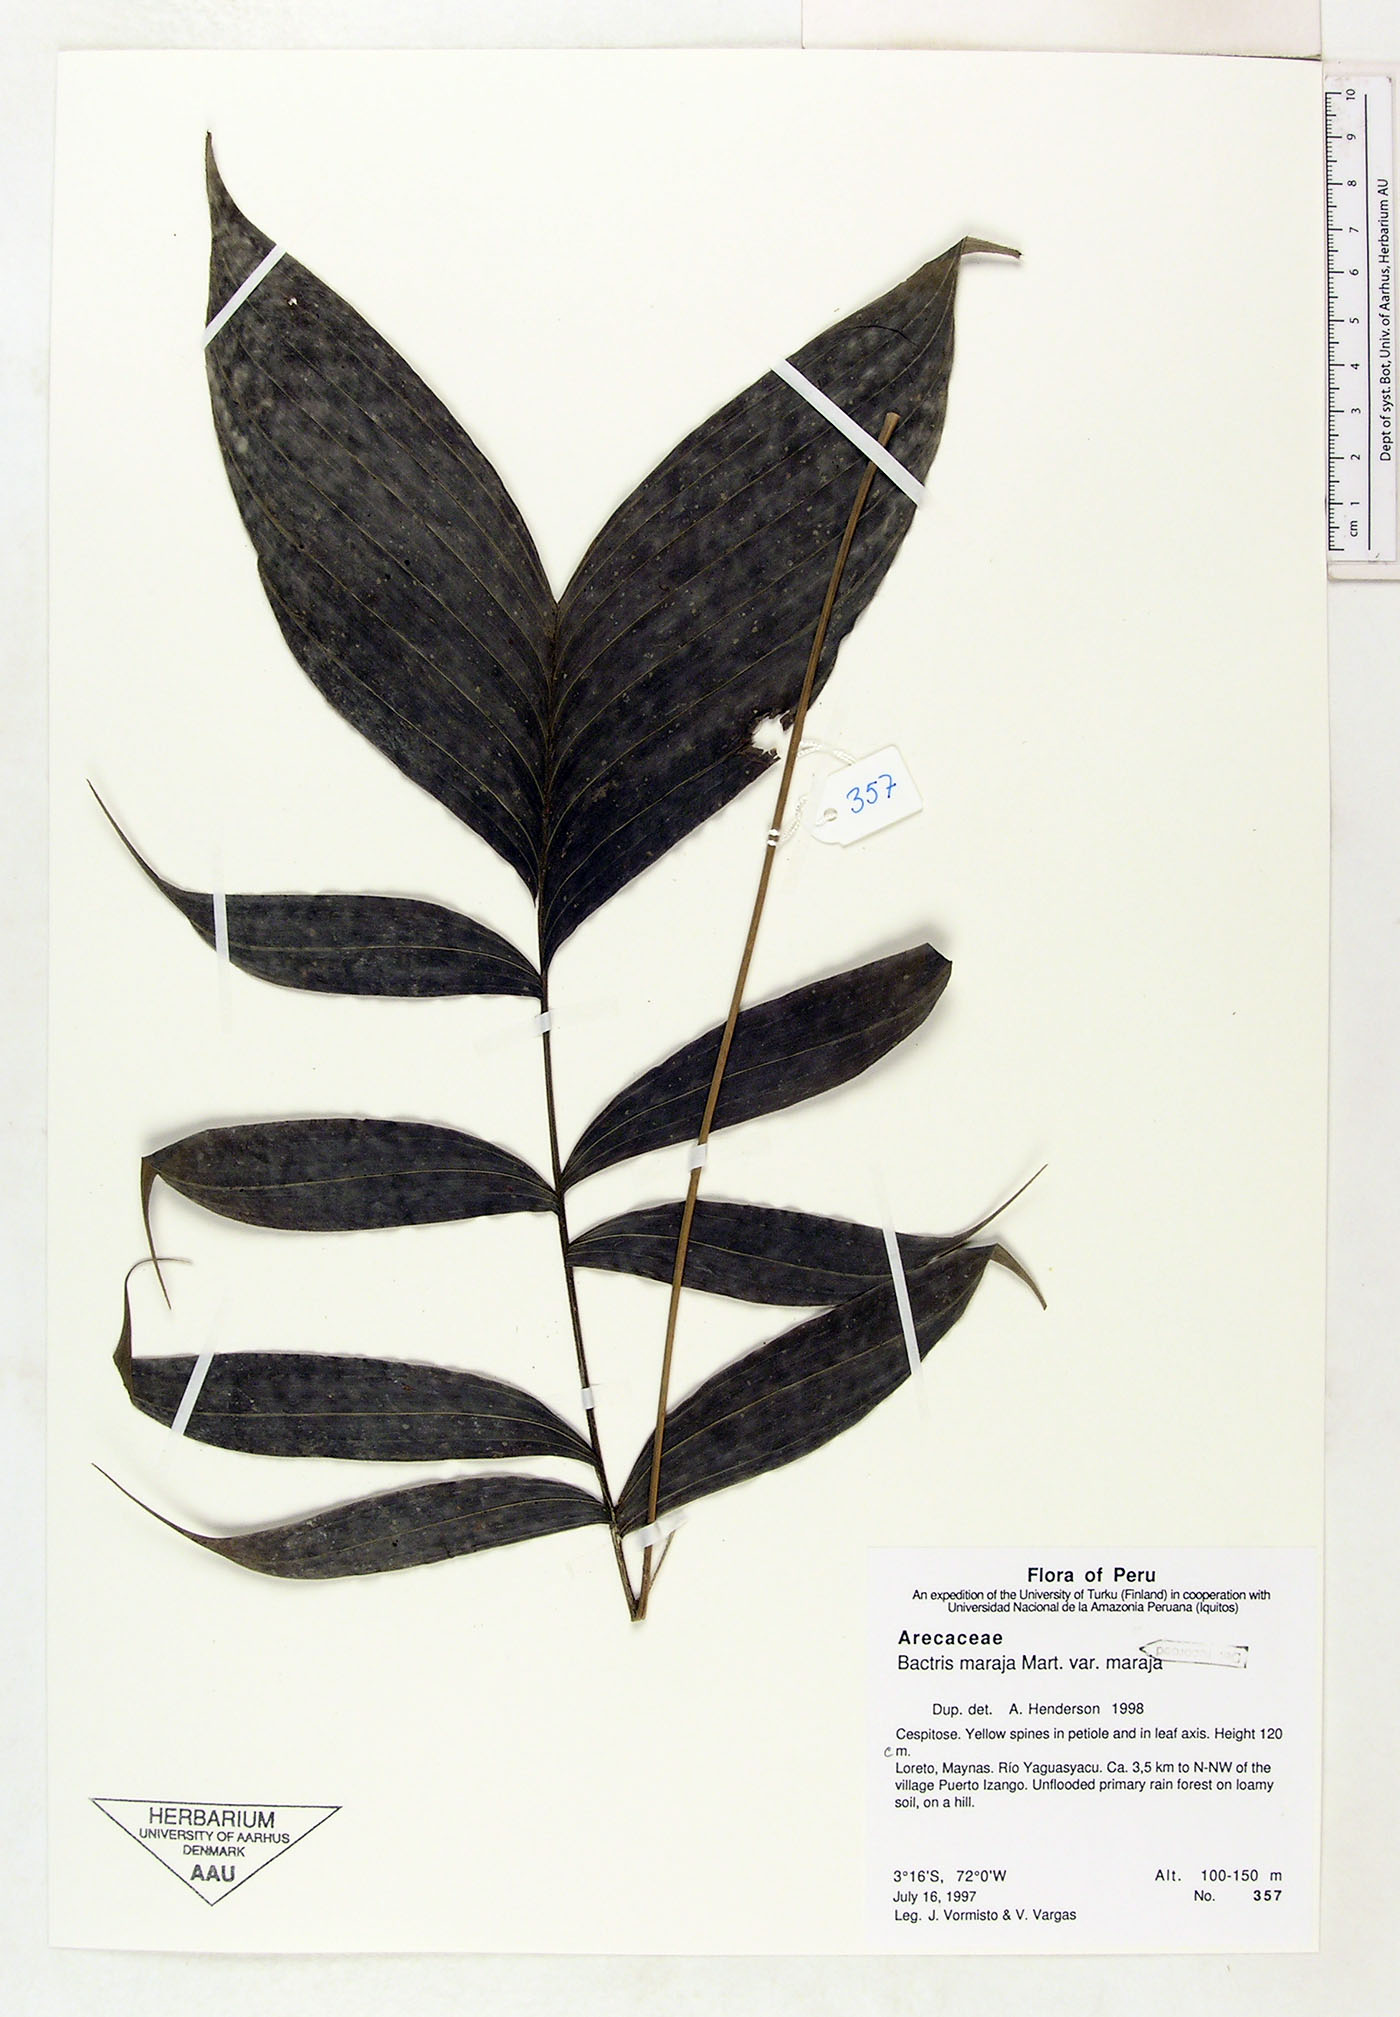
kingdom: Plantae
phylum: Tracheophyta
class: Liliopsida
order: Arecales
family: Arecaceae
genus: Bactris
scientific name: Bactris maraja
